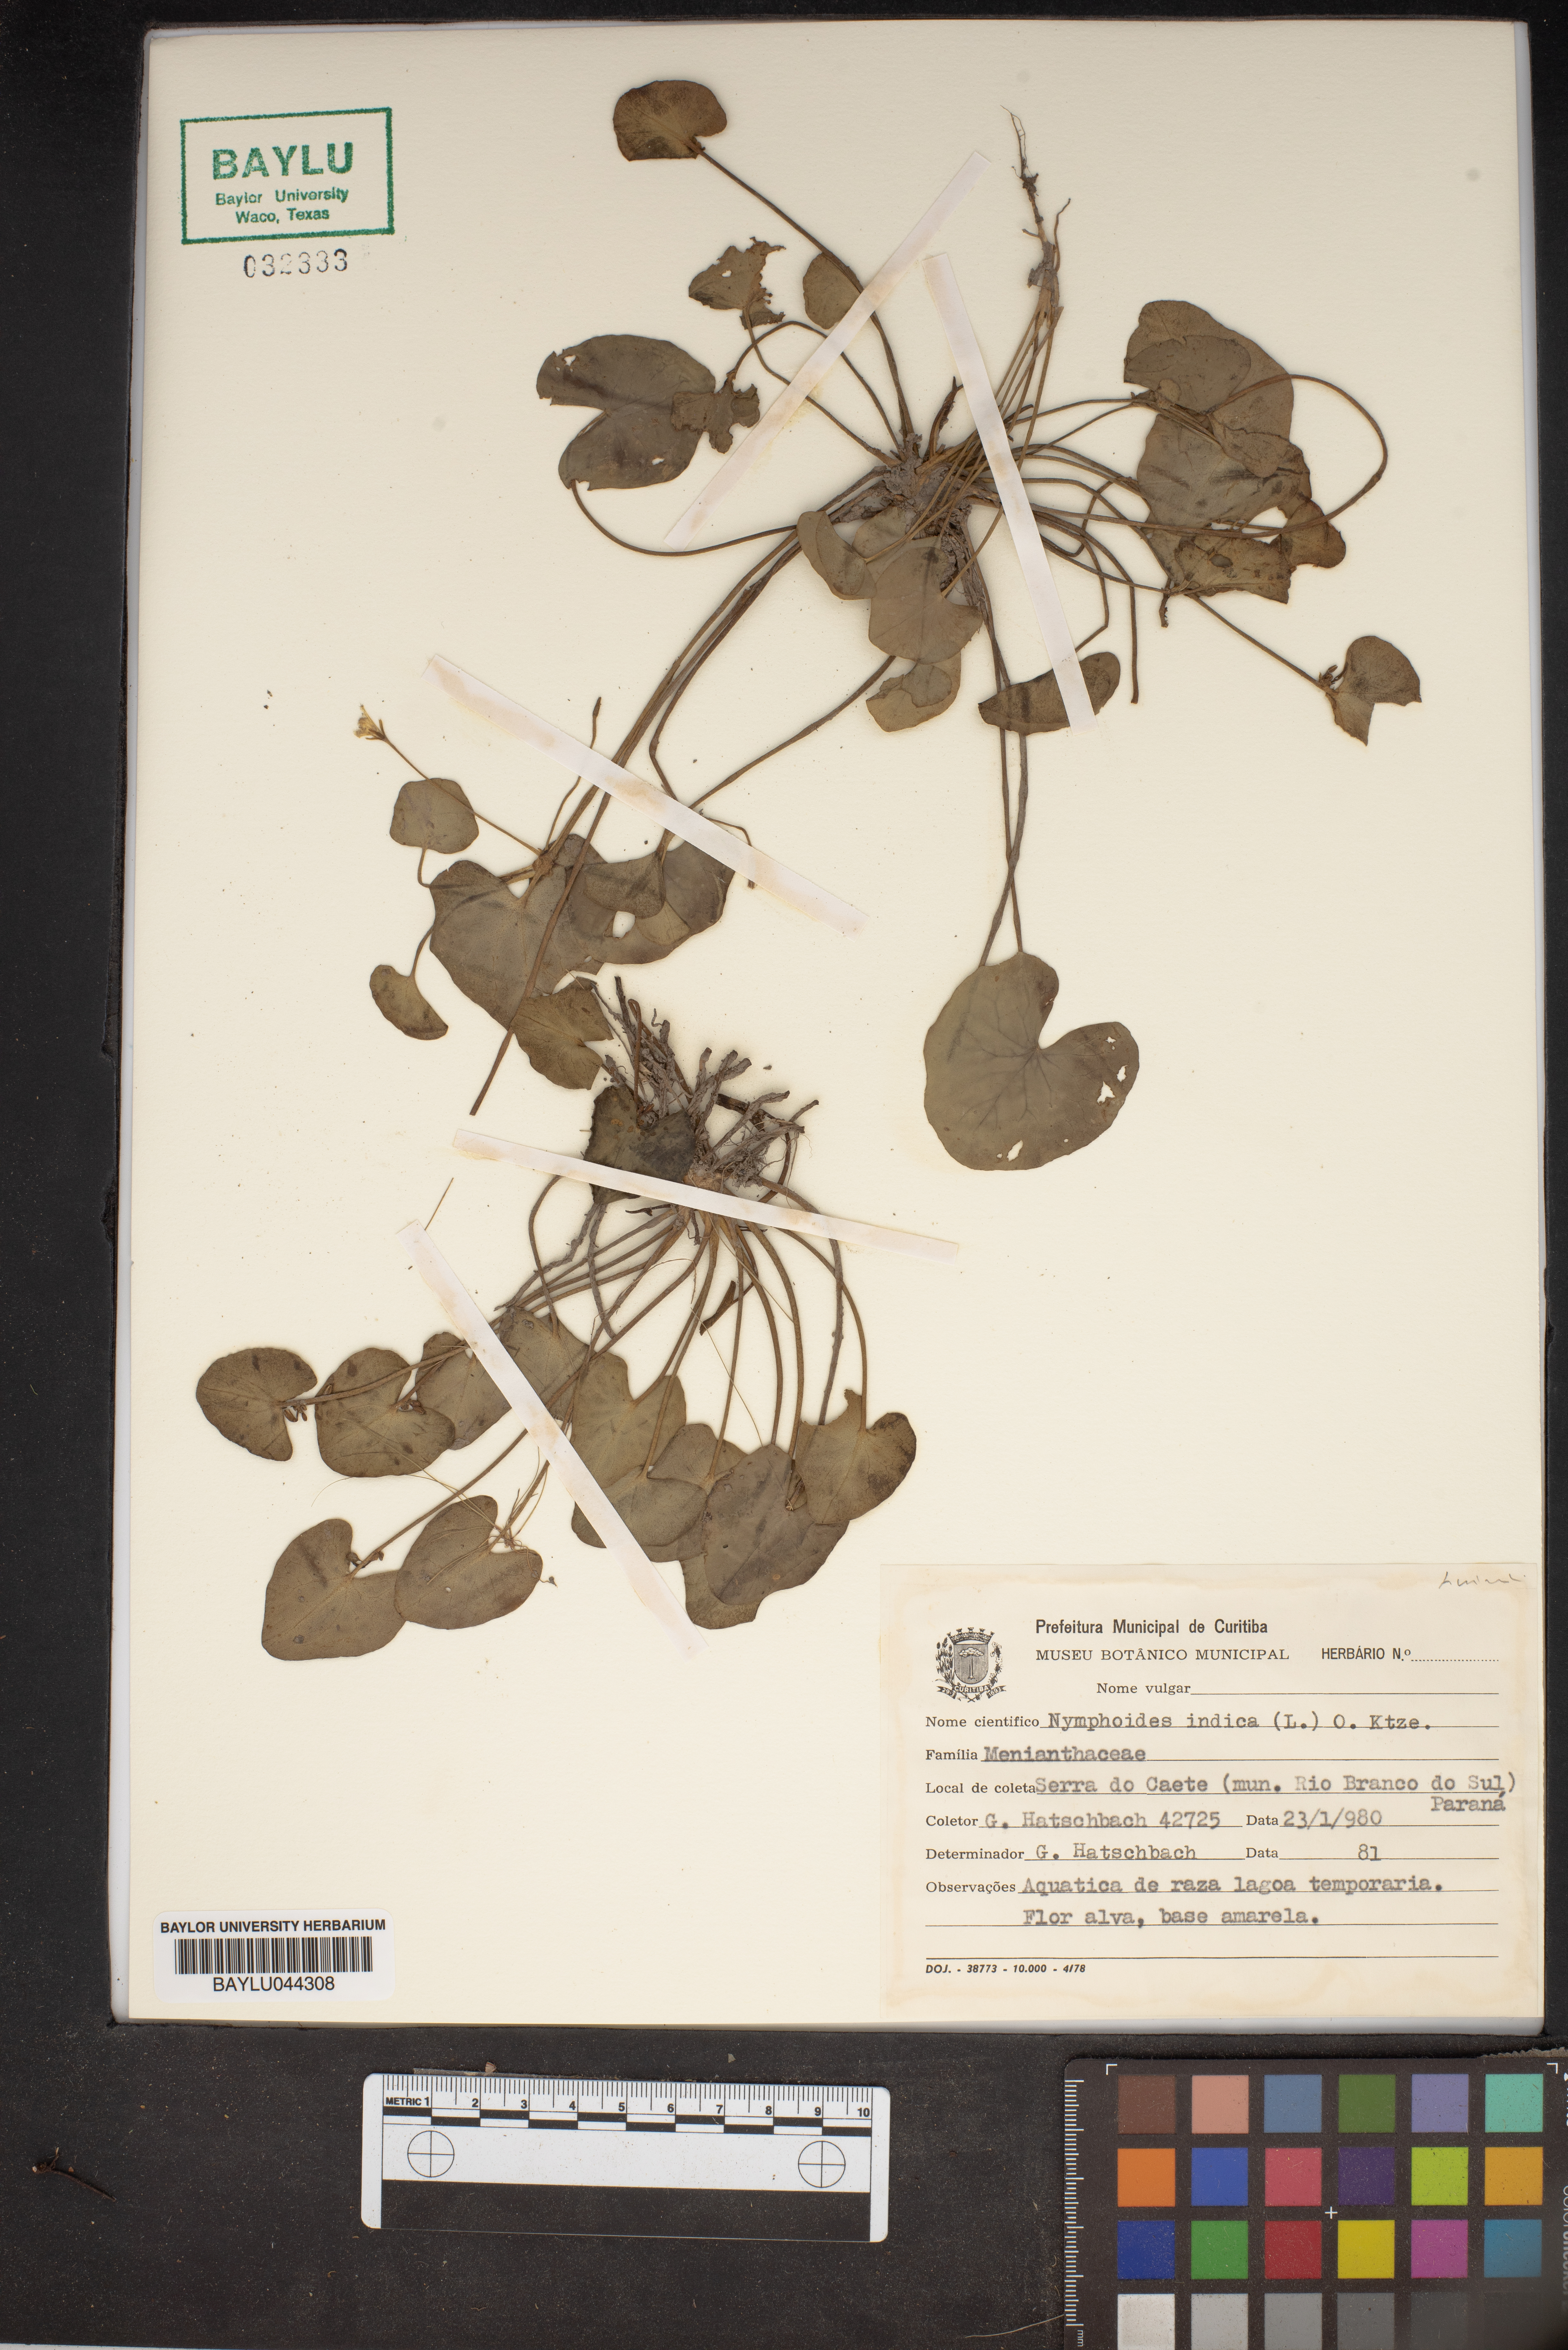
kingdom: Plantae
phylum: Tracheophyta
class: Magnoliopsida
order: Asterales
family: Menyanthaceae
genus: Nymphoides
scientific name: Nymphoides indica
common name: Water-snowflake
